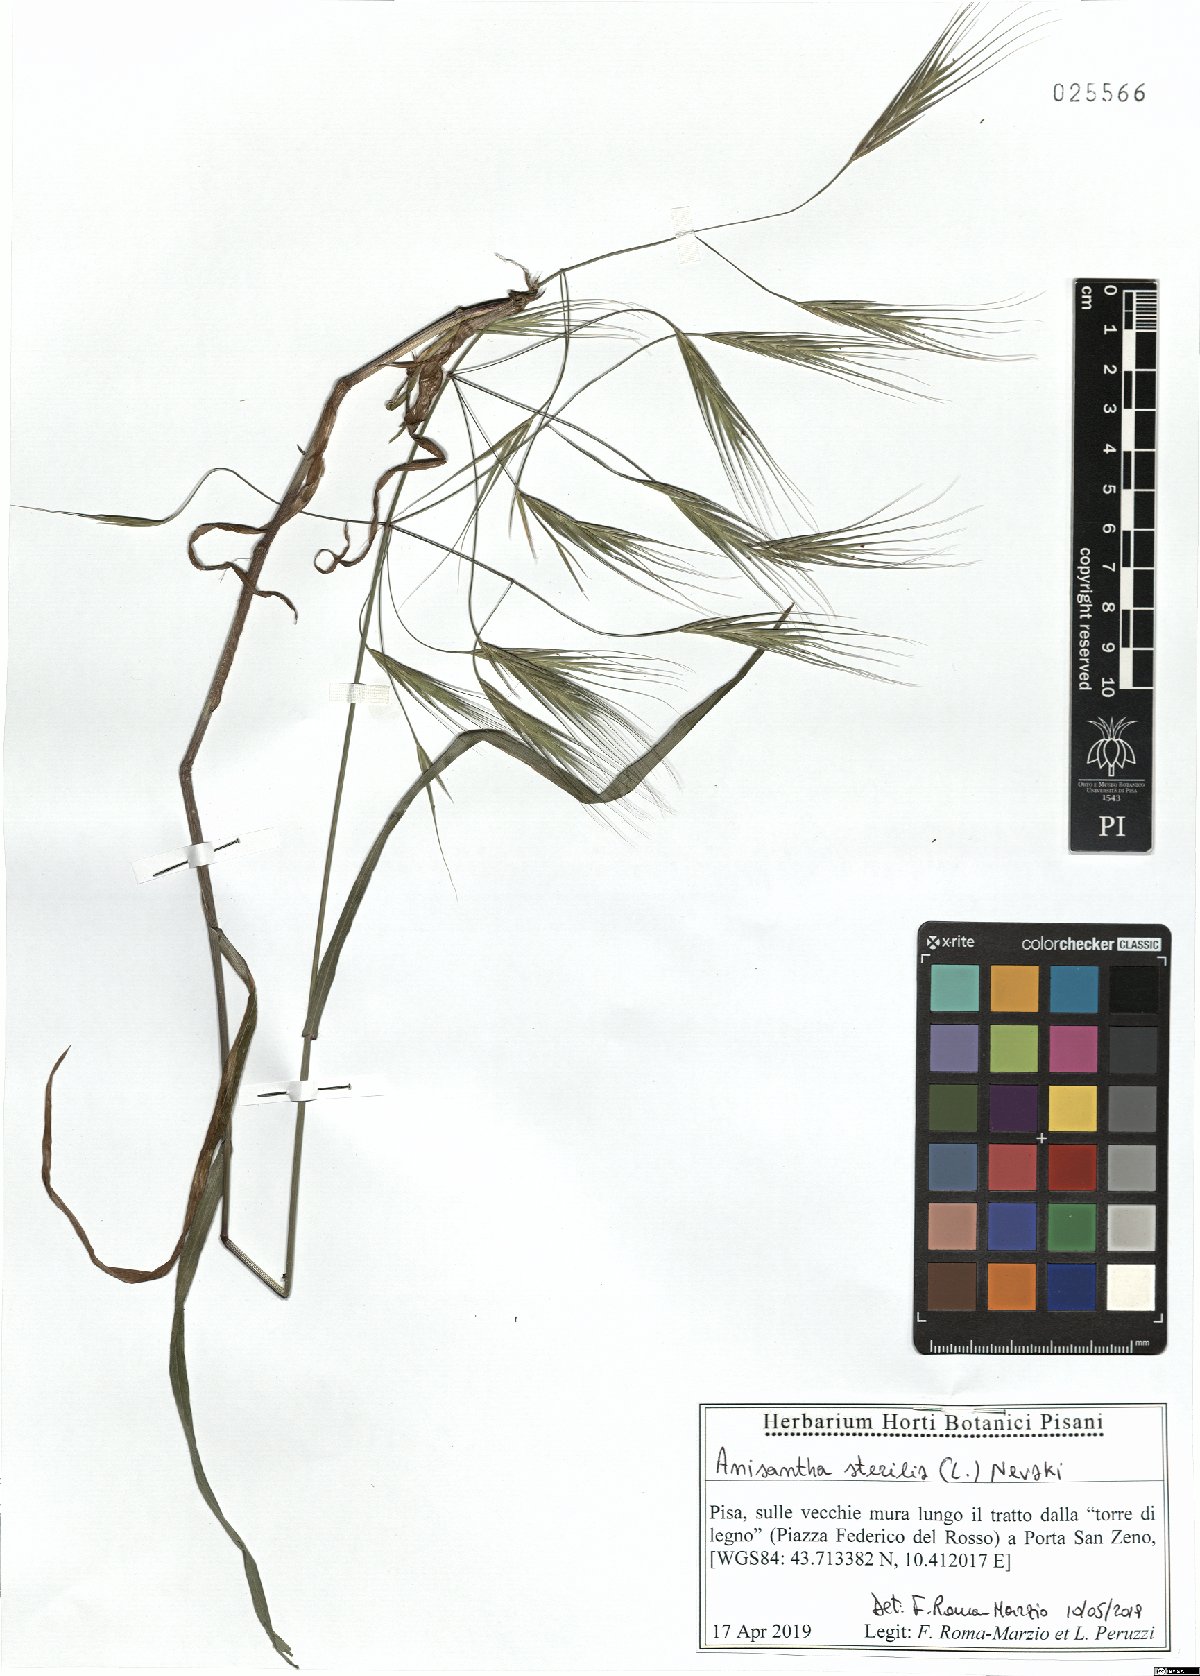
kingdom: Plantae
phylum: Tracheophyta
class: Liliopsida
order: Poales
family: Poaceae
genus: Bromus
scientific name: Bromus sterilis
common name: Poverty brome
